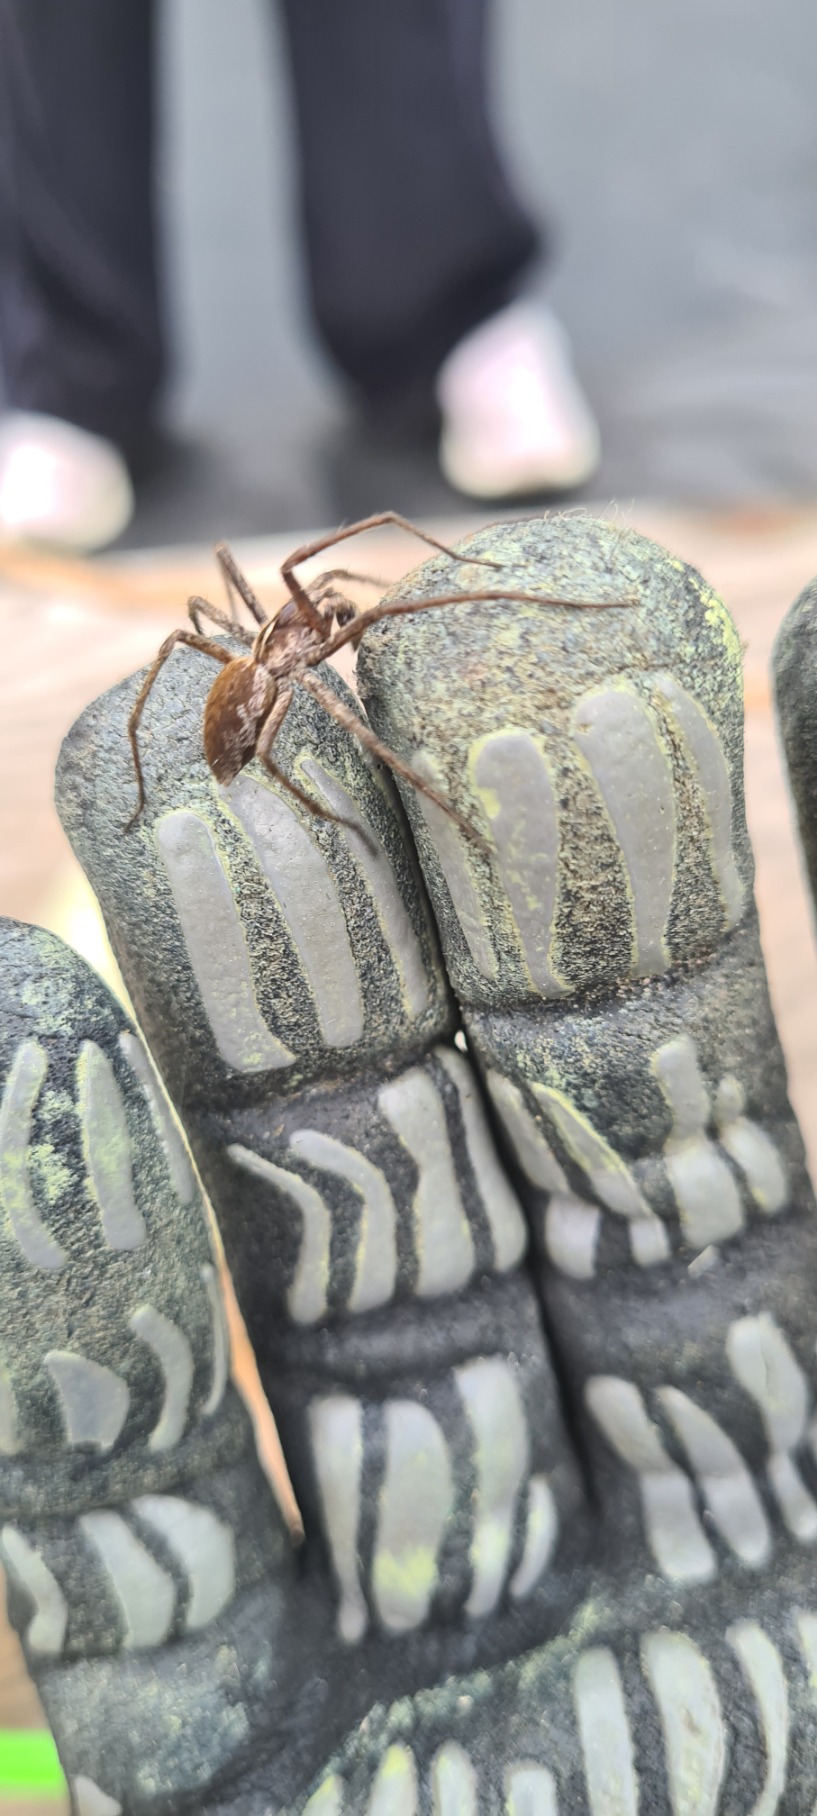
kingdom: Animalia
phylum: Arthropoda
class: Arachnida
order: Araneae
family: Pisauridae
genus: Pisaura
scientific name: Pisaura mirabilis
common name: Almindelig rovedderkop
